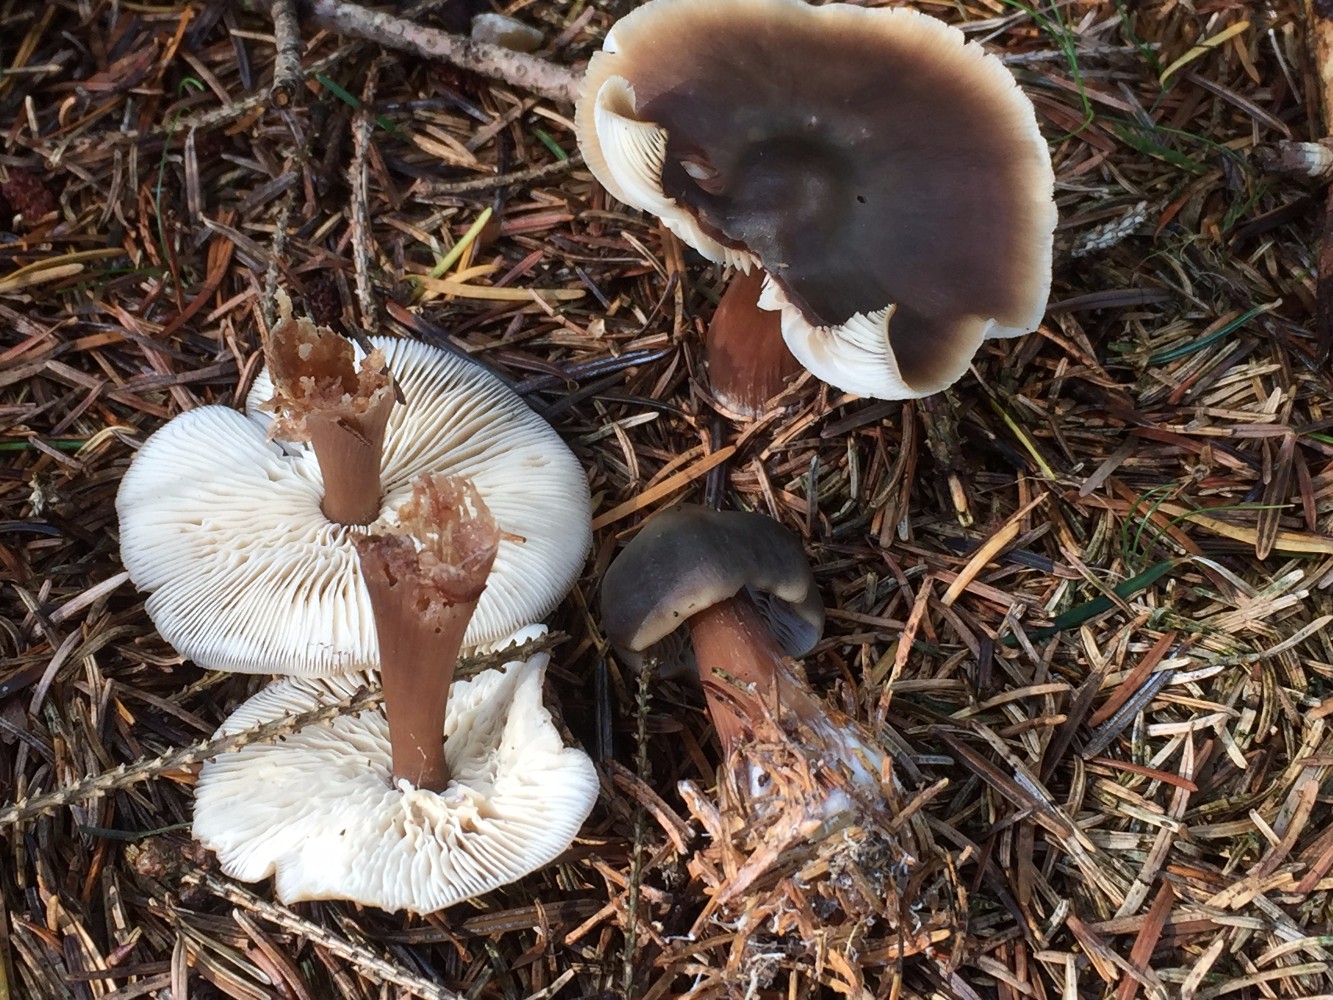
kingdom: Fungi
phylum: Basidiomycota
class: Agaricomycetes
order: Agaricales
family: Omphalotaceae
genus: Rhodocollybia
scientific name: Rhodocollybia butyracea
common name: keglestokket fladhat
